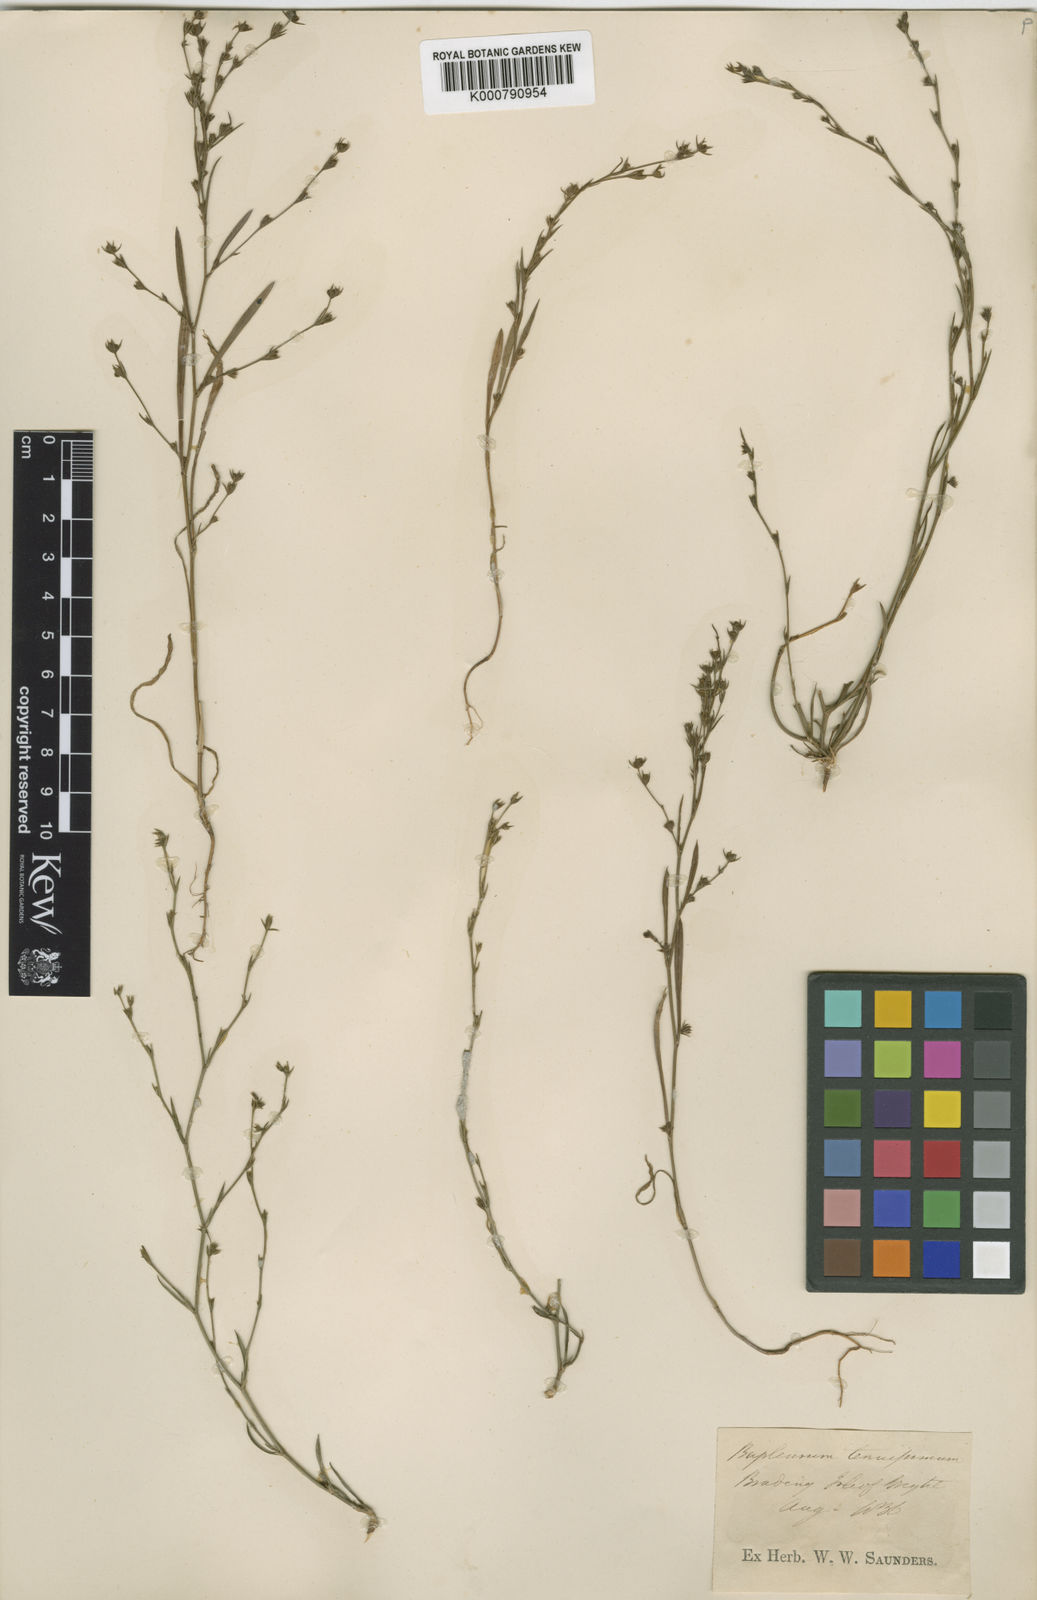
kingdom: Plantae
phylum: Tracheophyta
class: Magnoliopsida
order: Apiales
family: Apiaceae
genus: Bupleurum
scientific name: Bupleurum tenuissimum
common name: Slender hare's-ear
